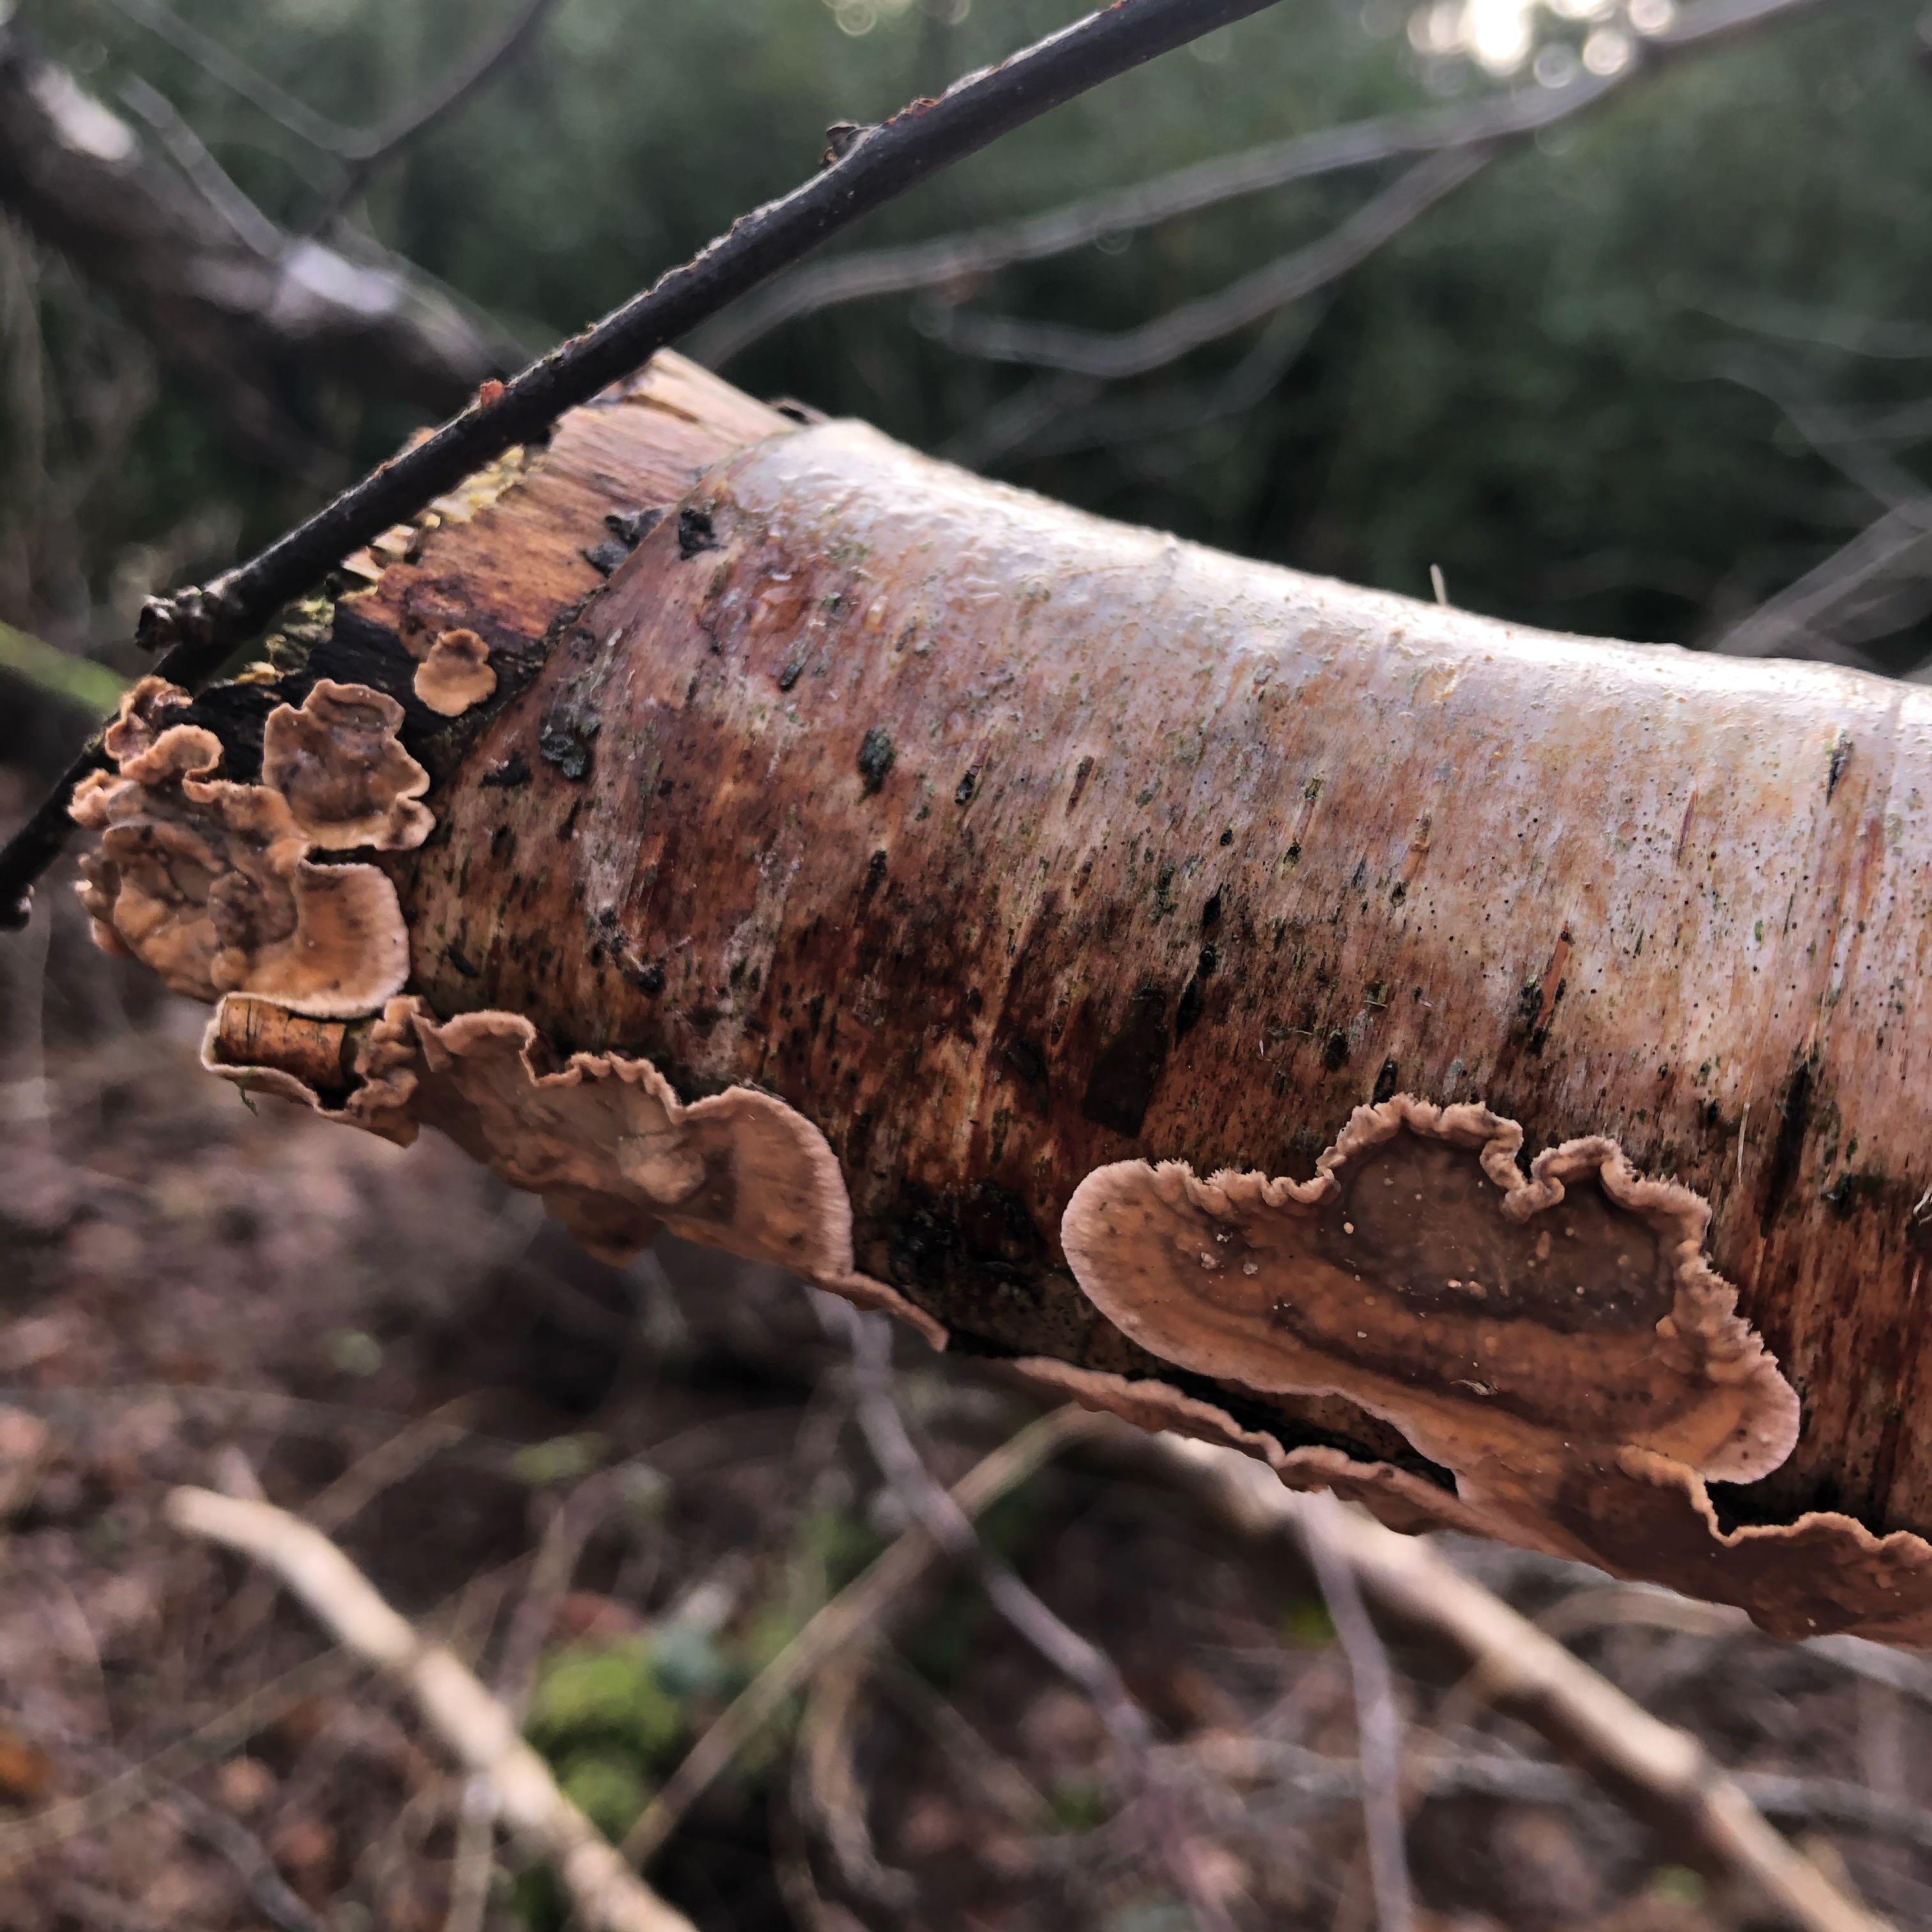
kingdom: Fungi
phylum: Basidiomycota
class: Agaricomycetes
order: Russulales
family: Stereaceae
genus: Stereum
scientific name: Stereum hirsutum
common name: håret lædersvamp
